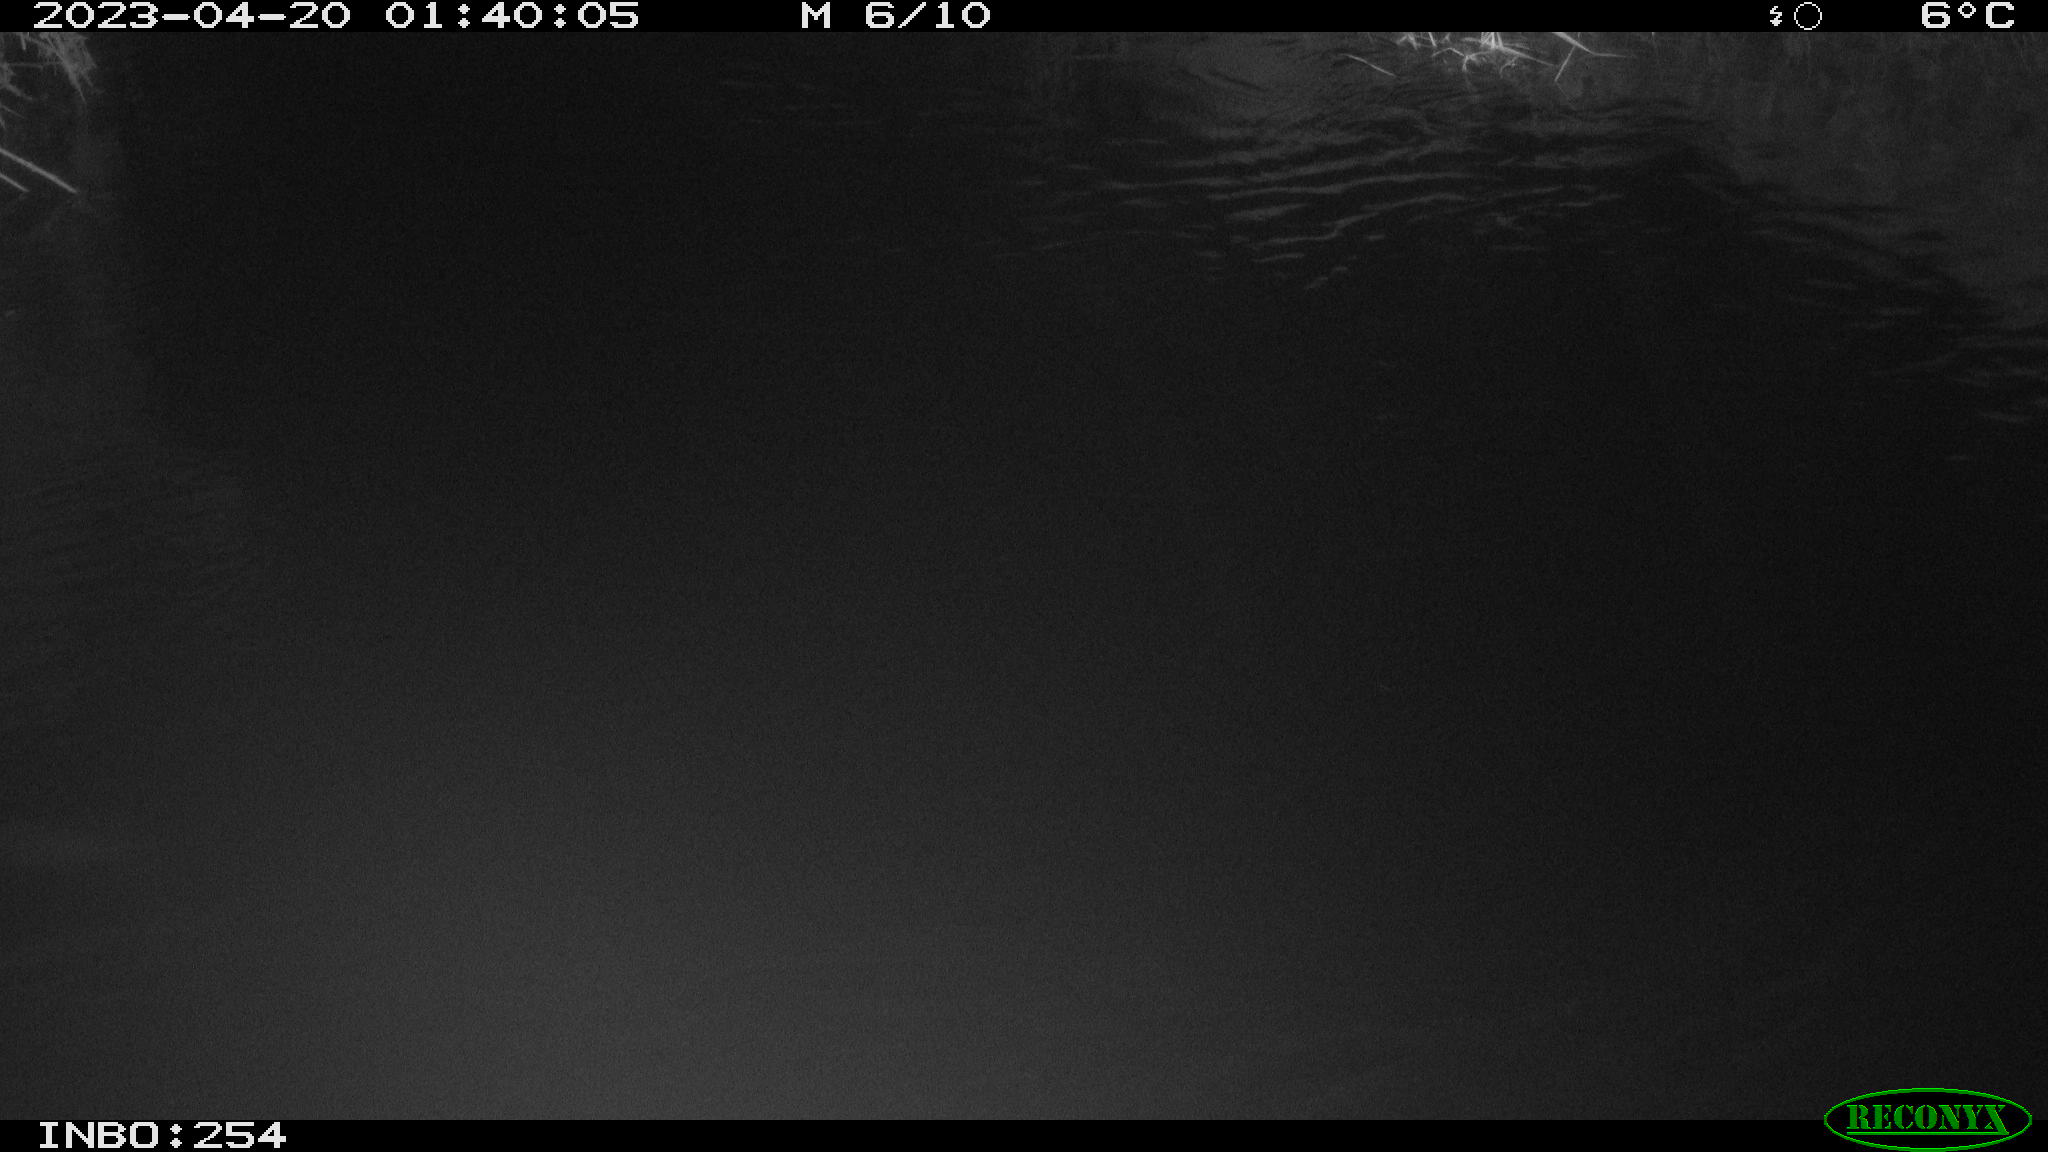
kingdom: Animalia
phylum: Chordata
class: Aves
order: Anseriformes
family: Anatidae
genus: Anas
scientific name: Anas
